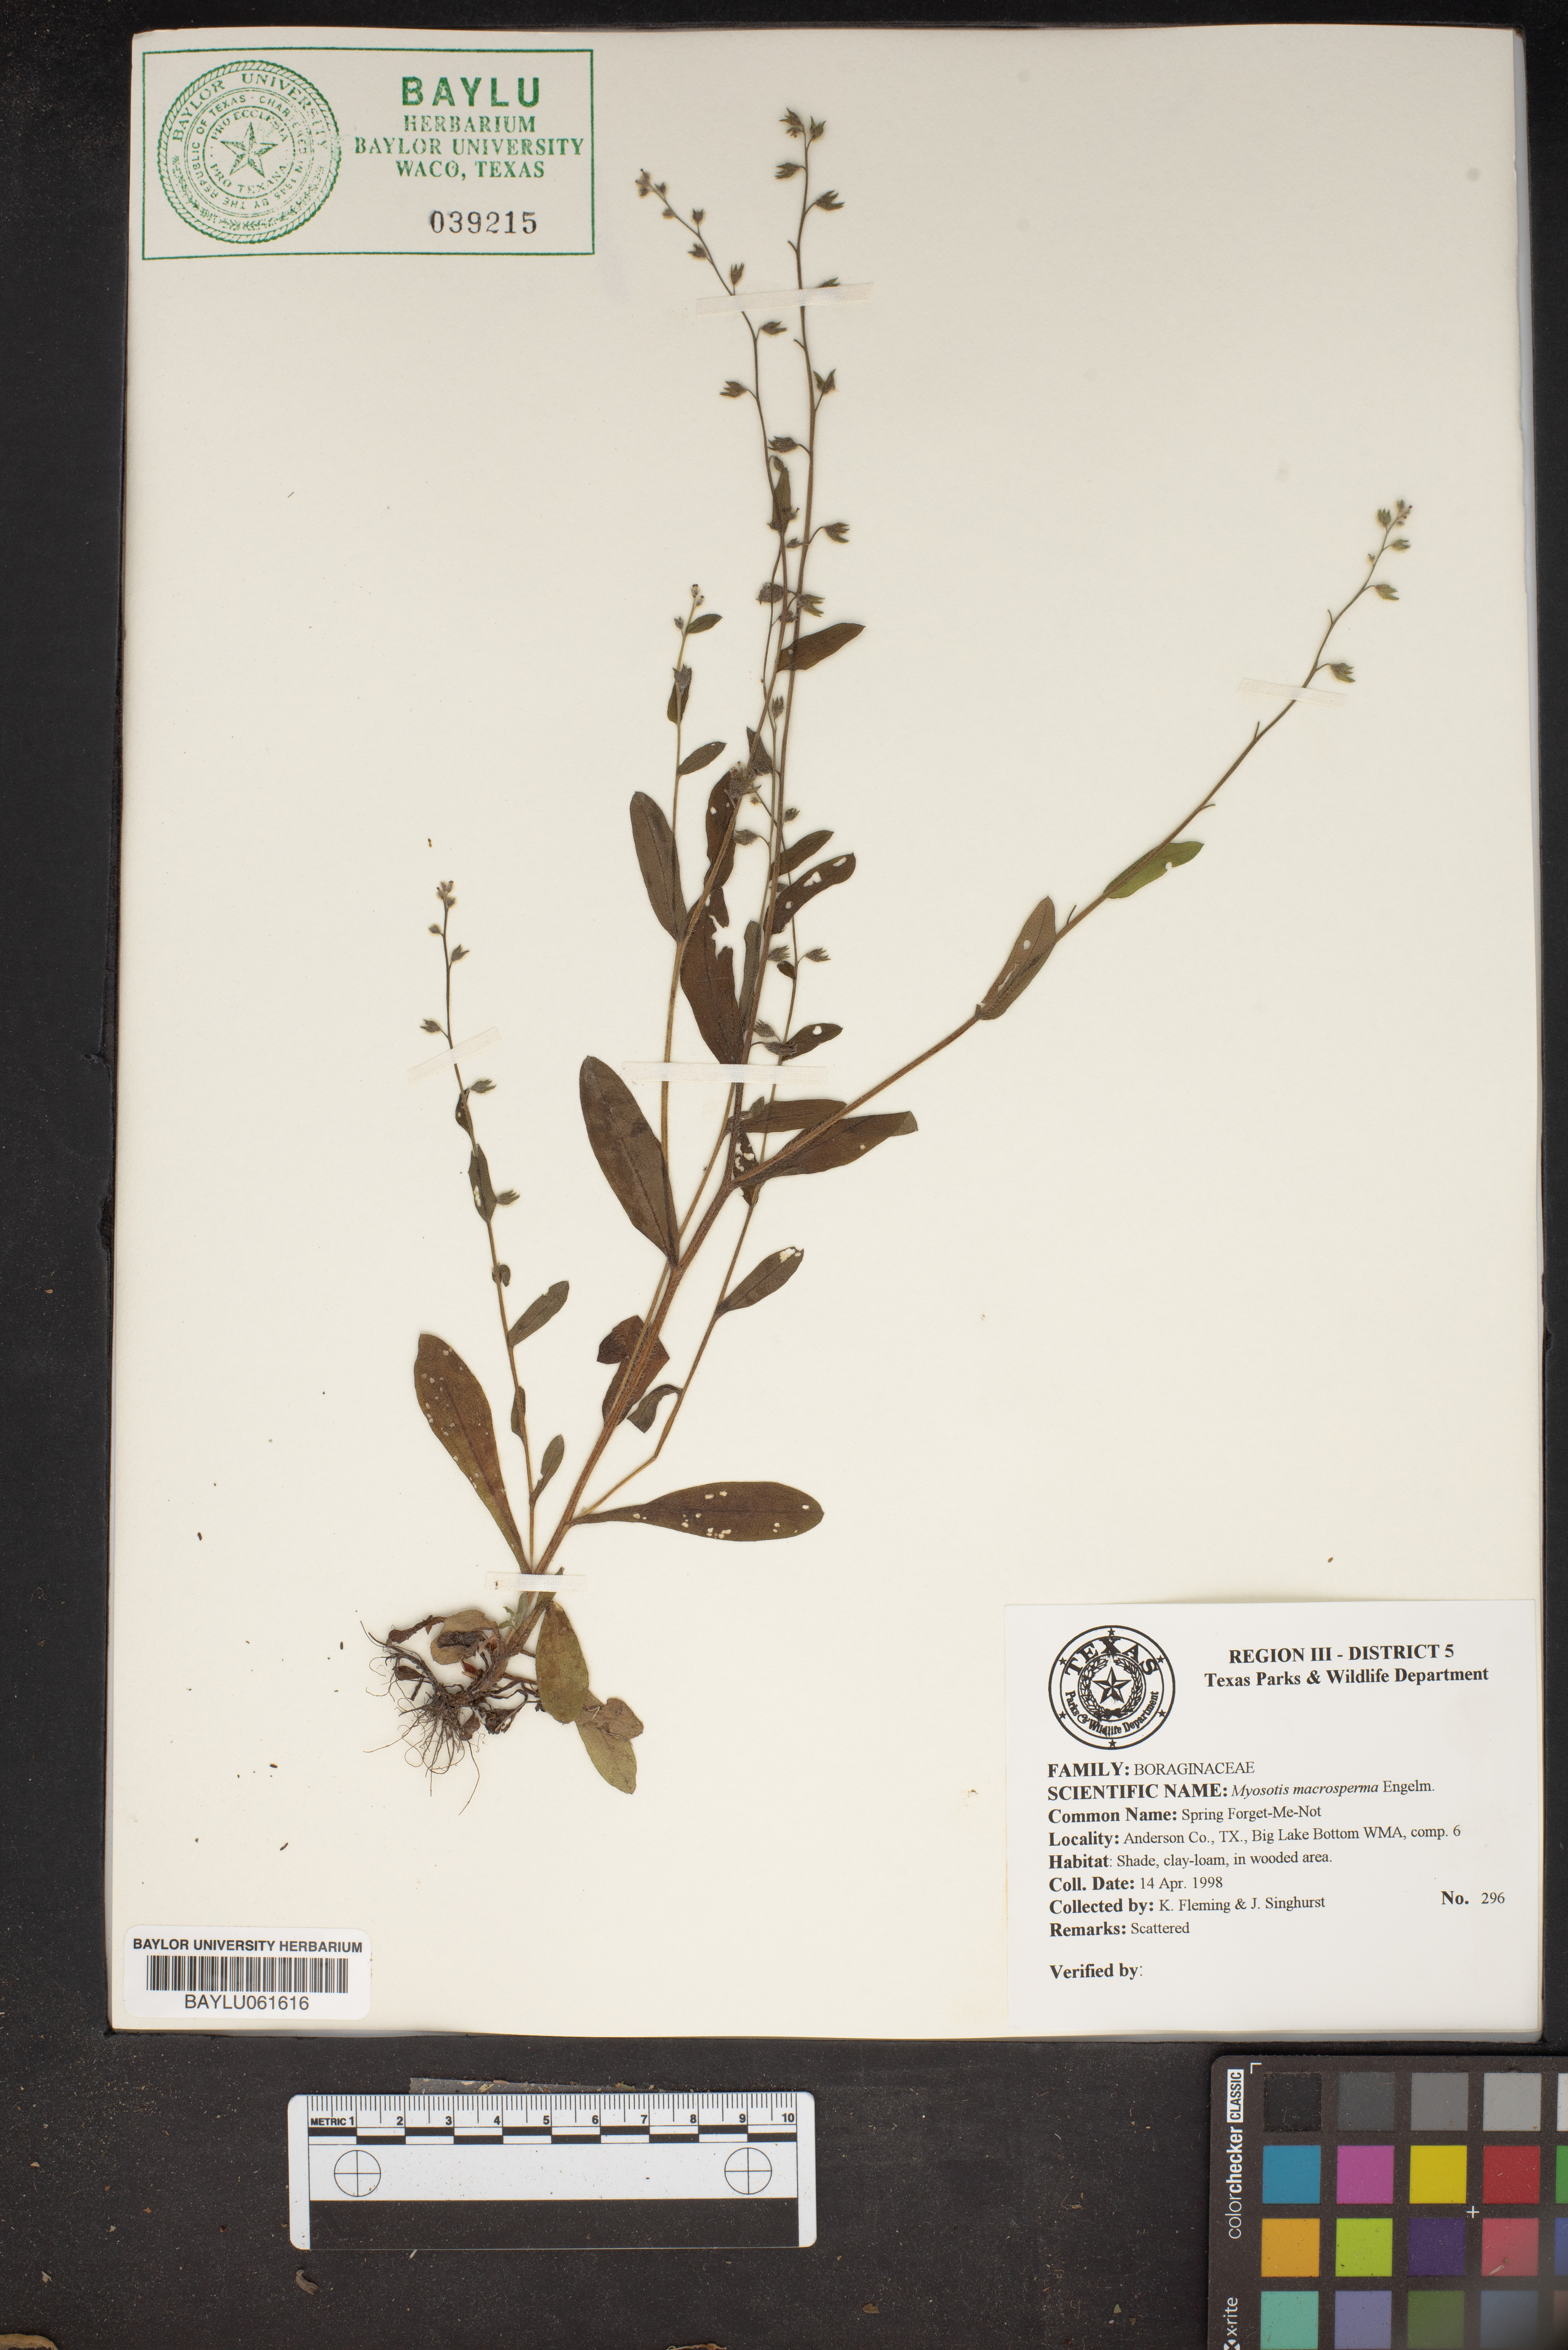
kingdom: Plantae
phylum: Tracheophyta
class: Magnoliopsida
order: Boraginales
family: Boraginaceae
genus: Myosotis
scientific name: Myosotis macrosperma
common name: Large-seed forget-me-not
